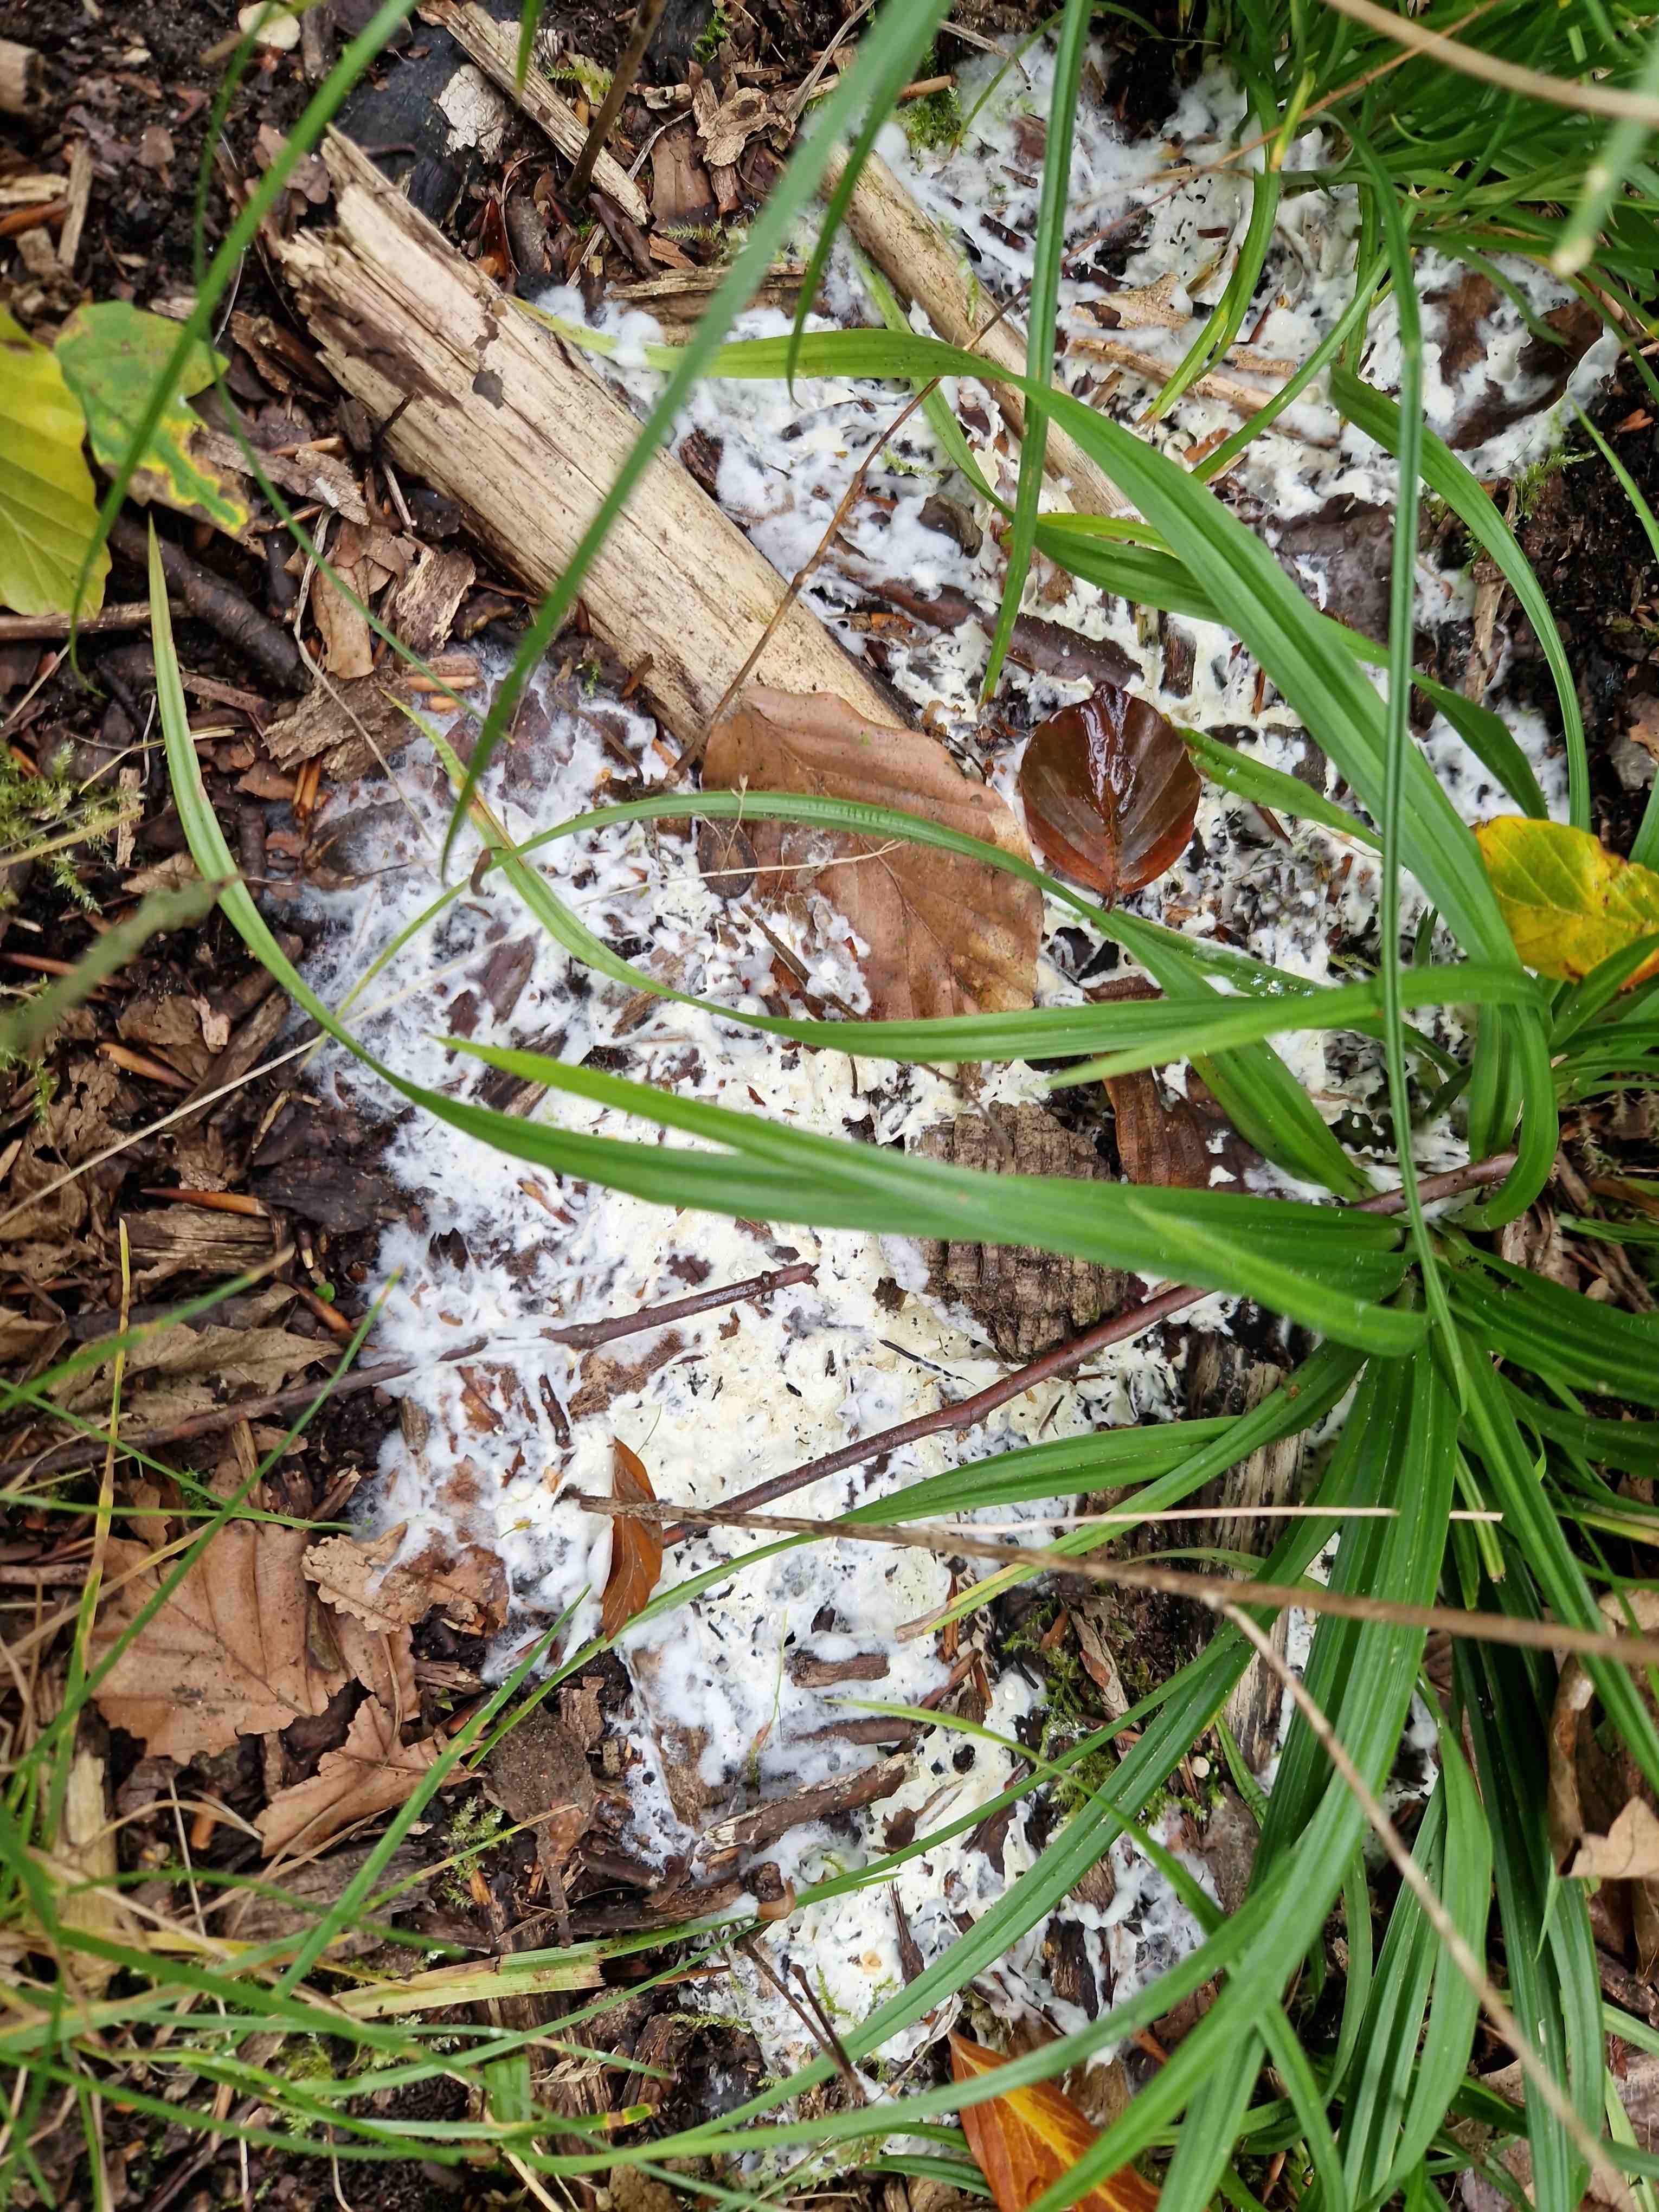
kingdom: Fungi
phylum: Ascomycota
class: Sordariomycetes
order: Hypocreales
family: Hypocreaceae
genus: Trichoderma
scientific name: Trichoderma citrinum
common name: udbredt kødkerne
